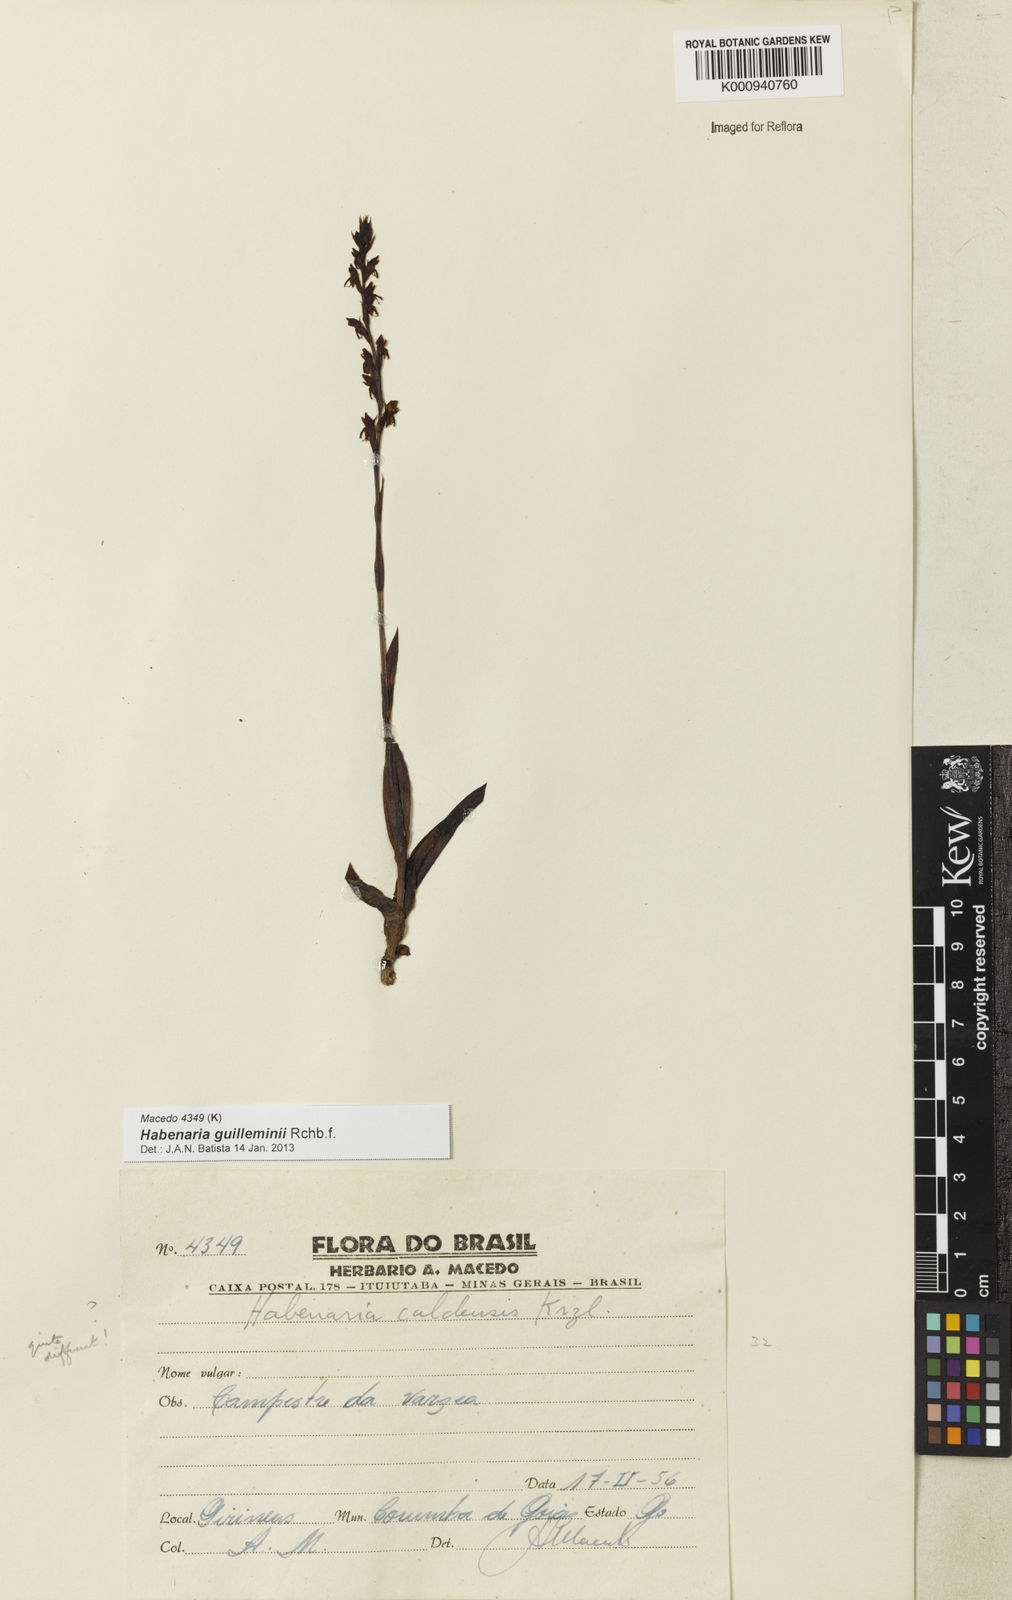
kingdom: Plantae
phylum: Tracheophyta
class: Liliopsida
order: Asparagales
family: Orchidaceae
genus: Habenaria
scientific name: Habenaria guilleminii
